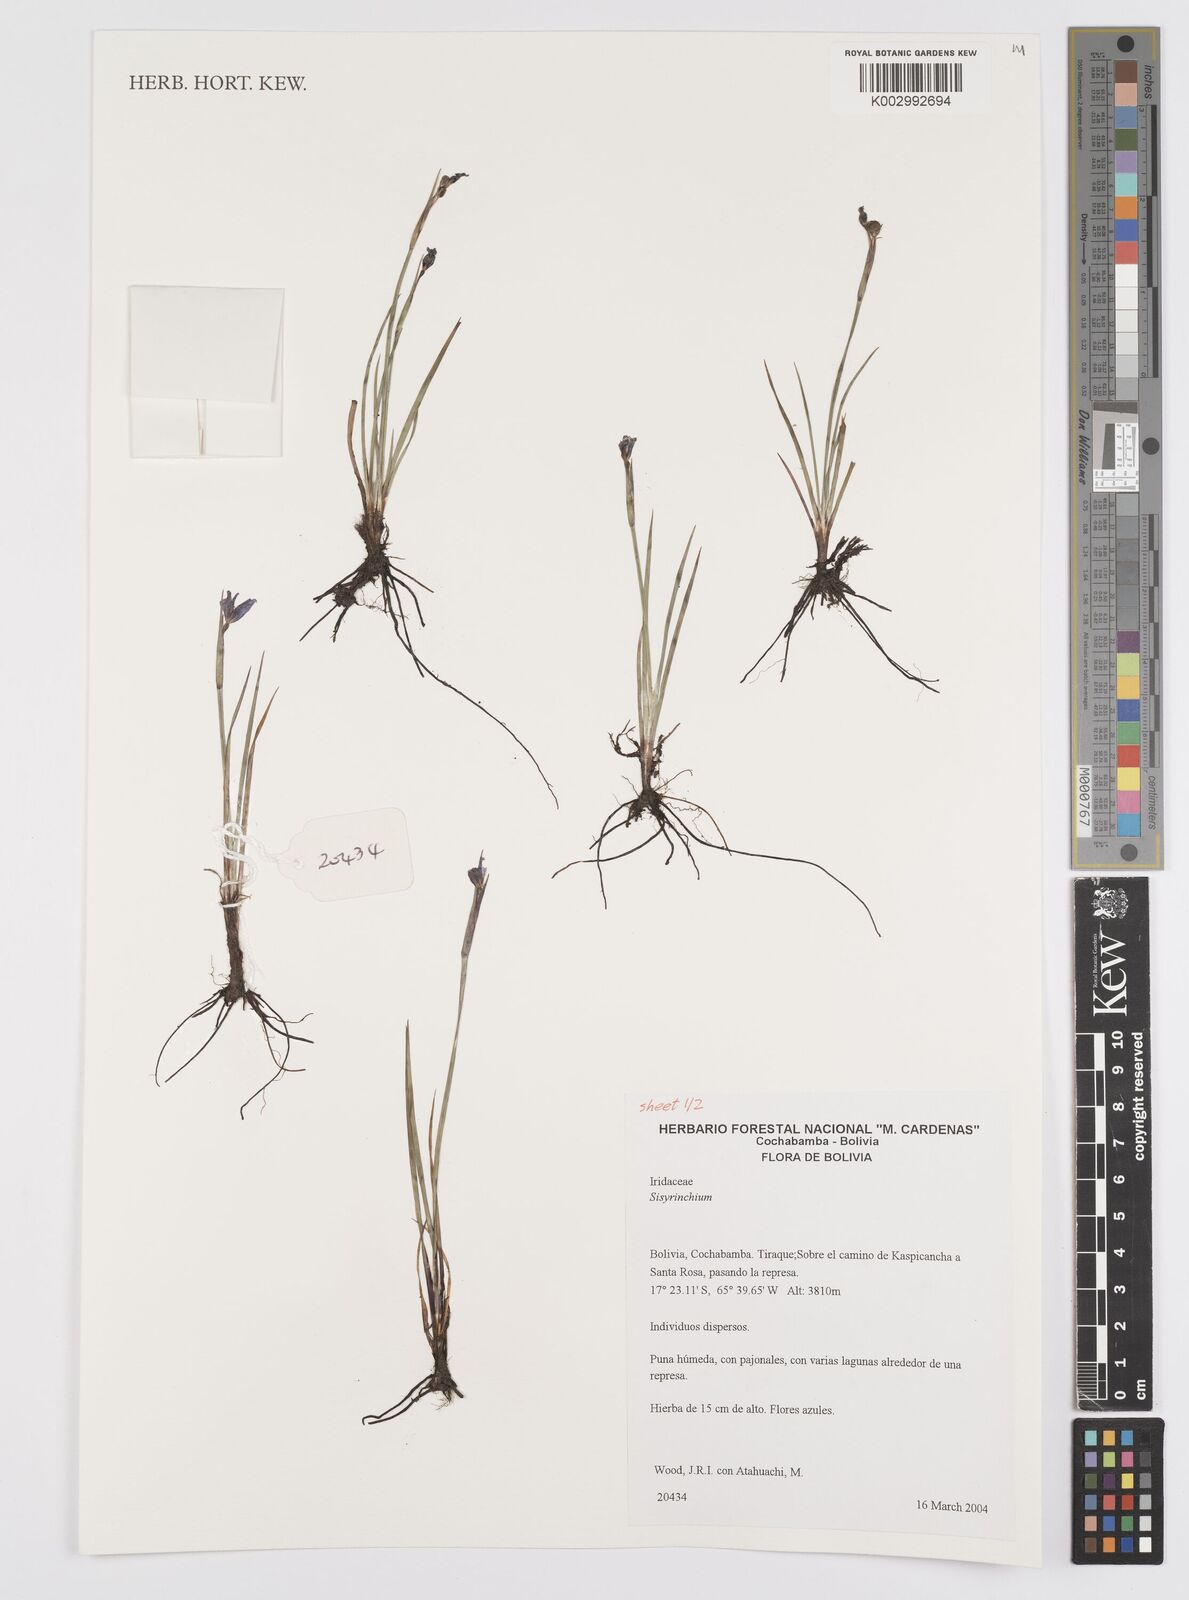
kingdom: Plantae
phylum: Tracheophyta
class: Liliopsida
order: Asparagales
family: Iridaceae
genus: Sisyrinchium
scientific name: Sisyrinchium
